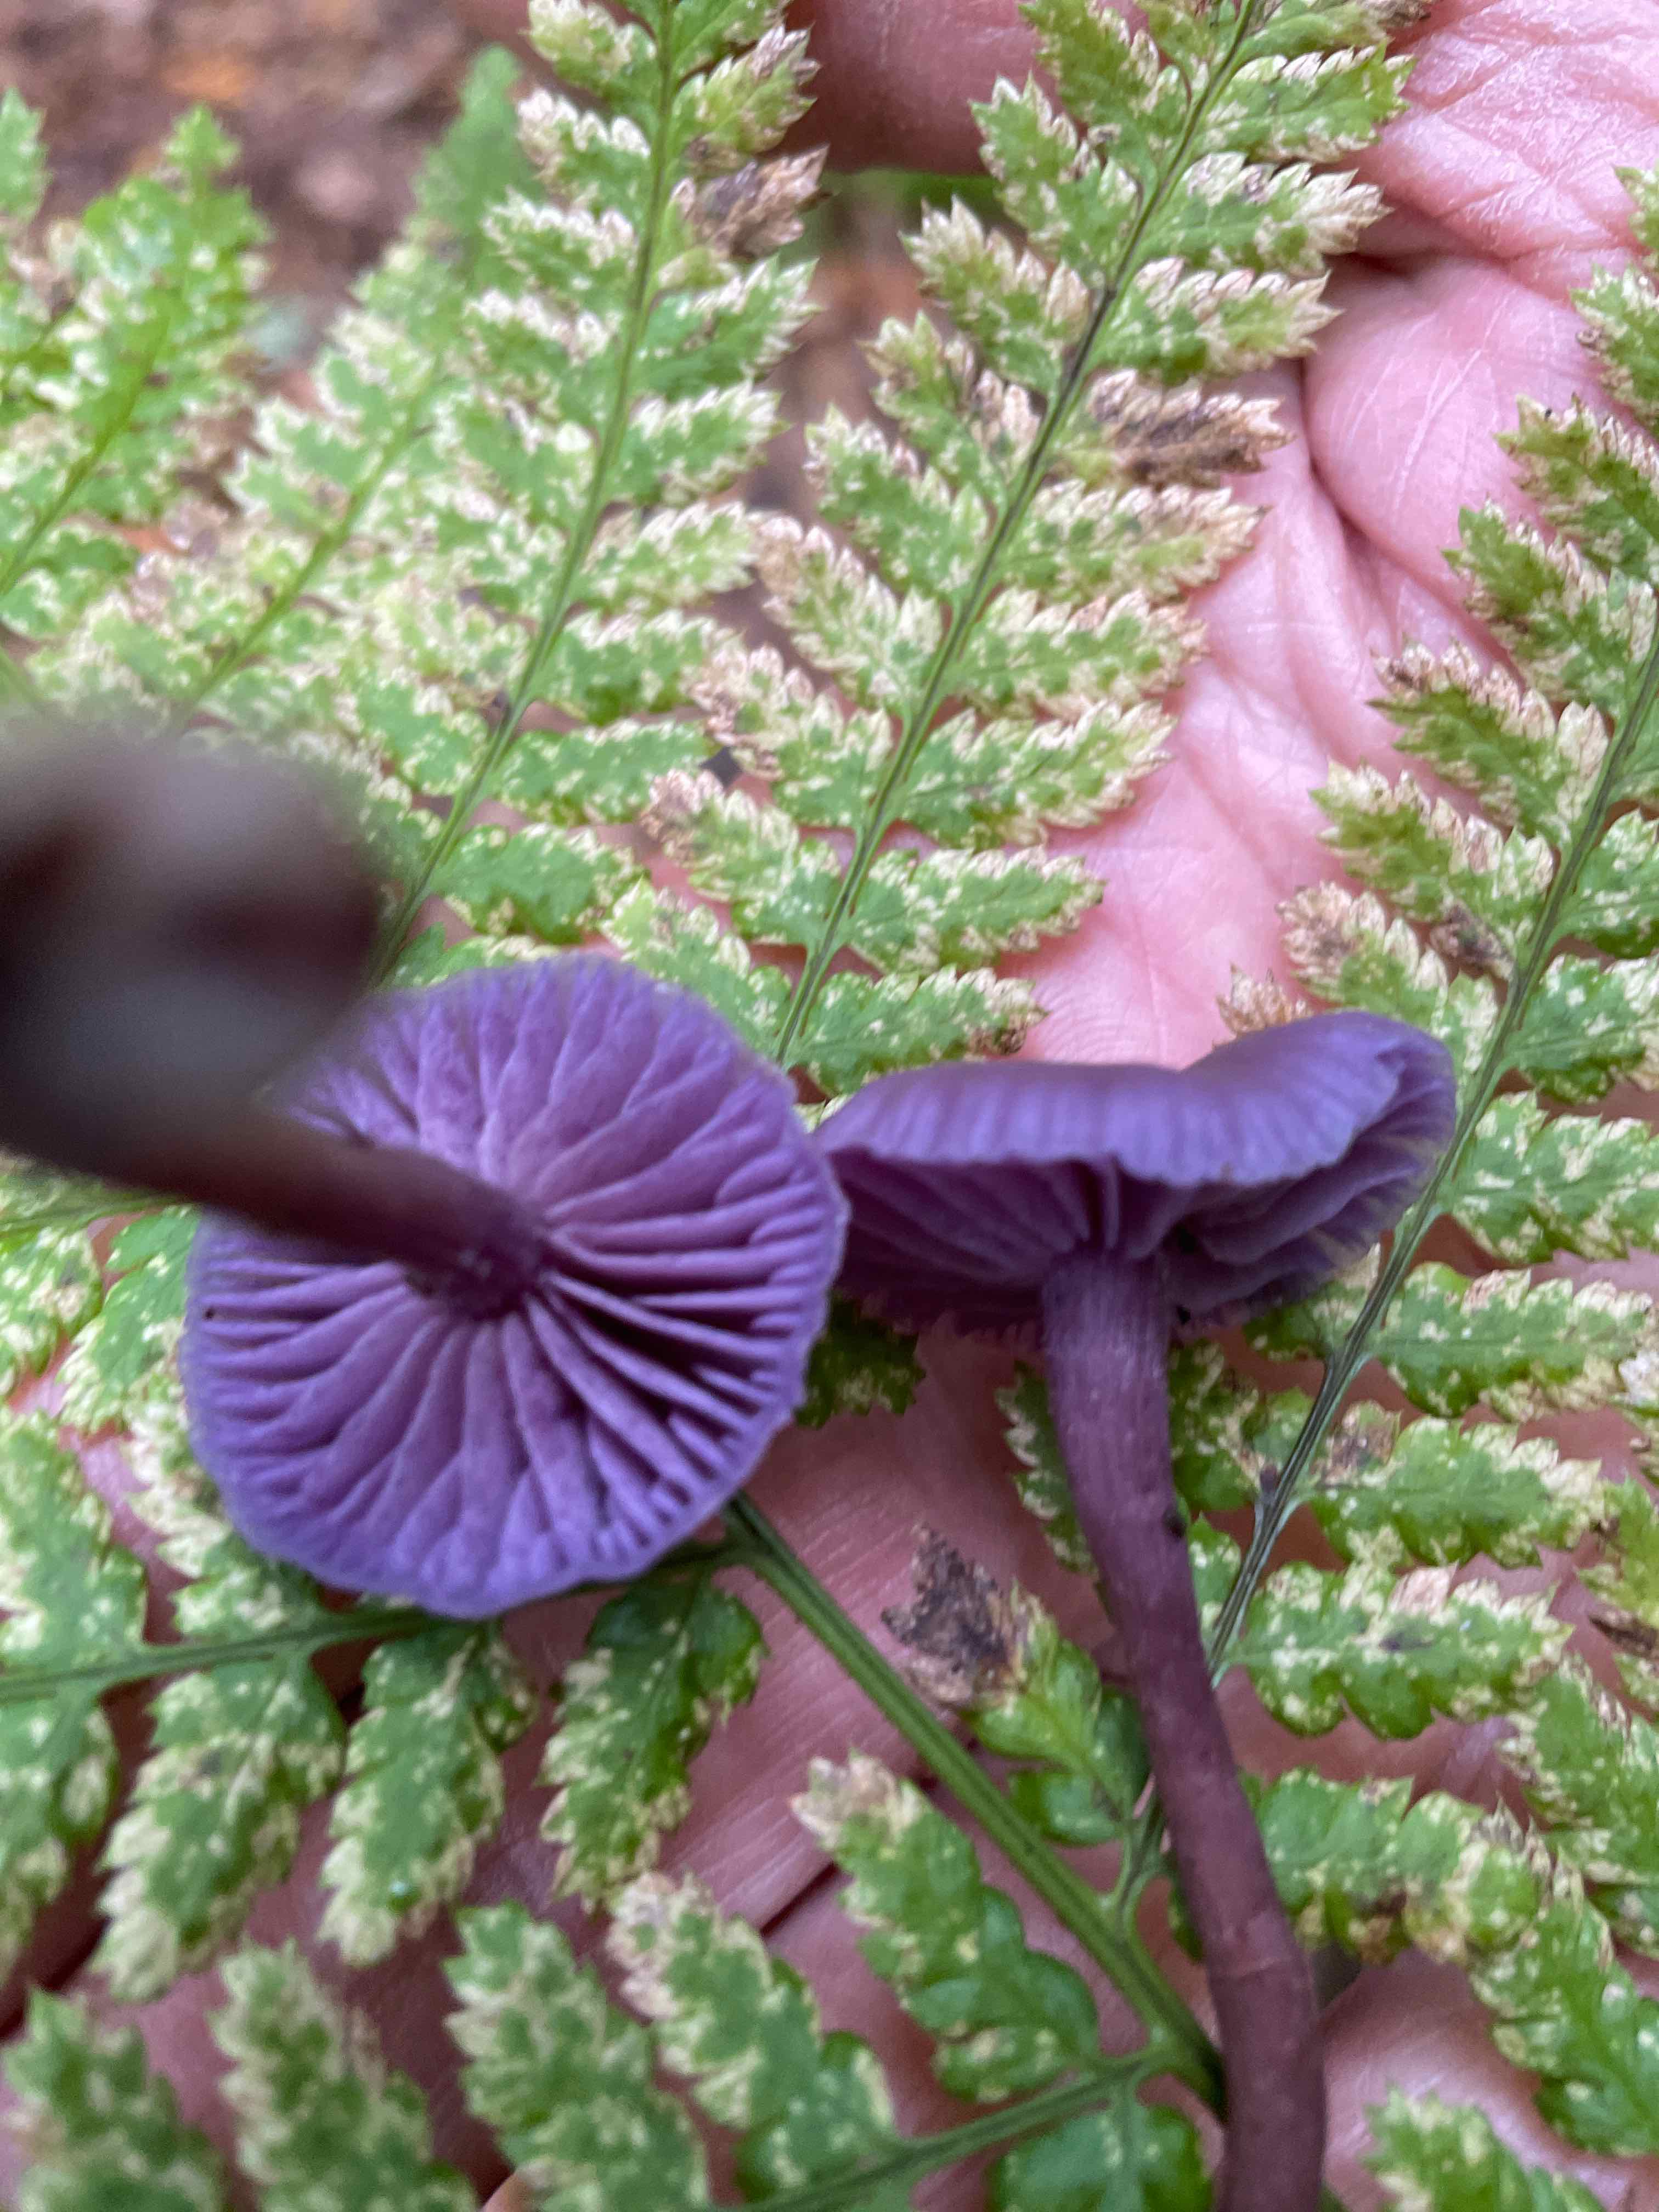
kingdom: Fungi
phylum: Basidiomycota
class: Agaricomycetes
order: Agaricales
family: Hydnangiaceae
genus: Laccaria
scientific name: Laccaria amethystina
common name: violet ametysthat
